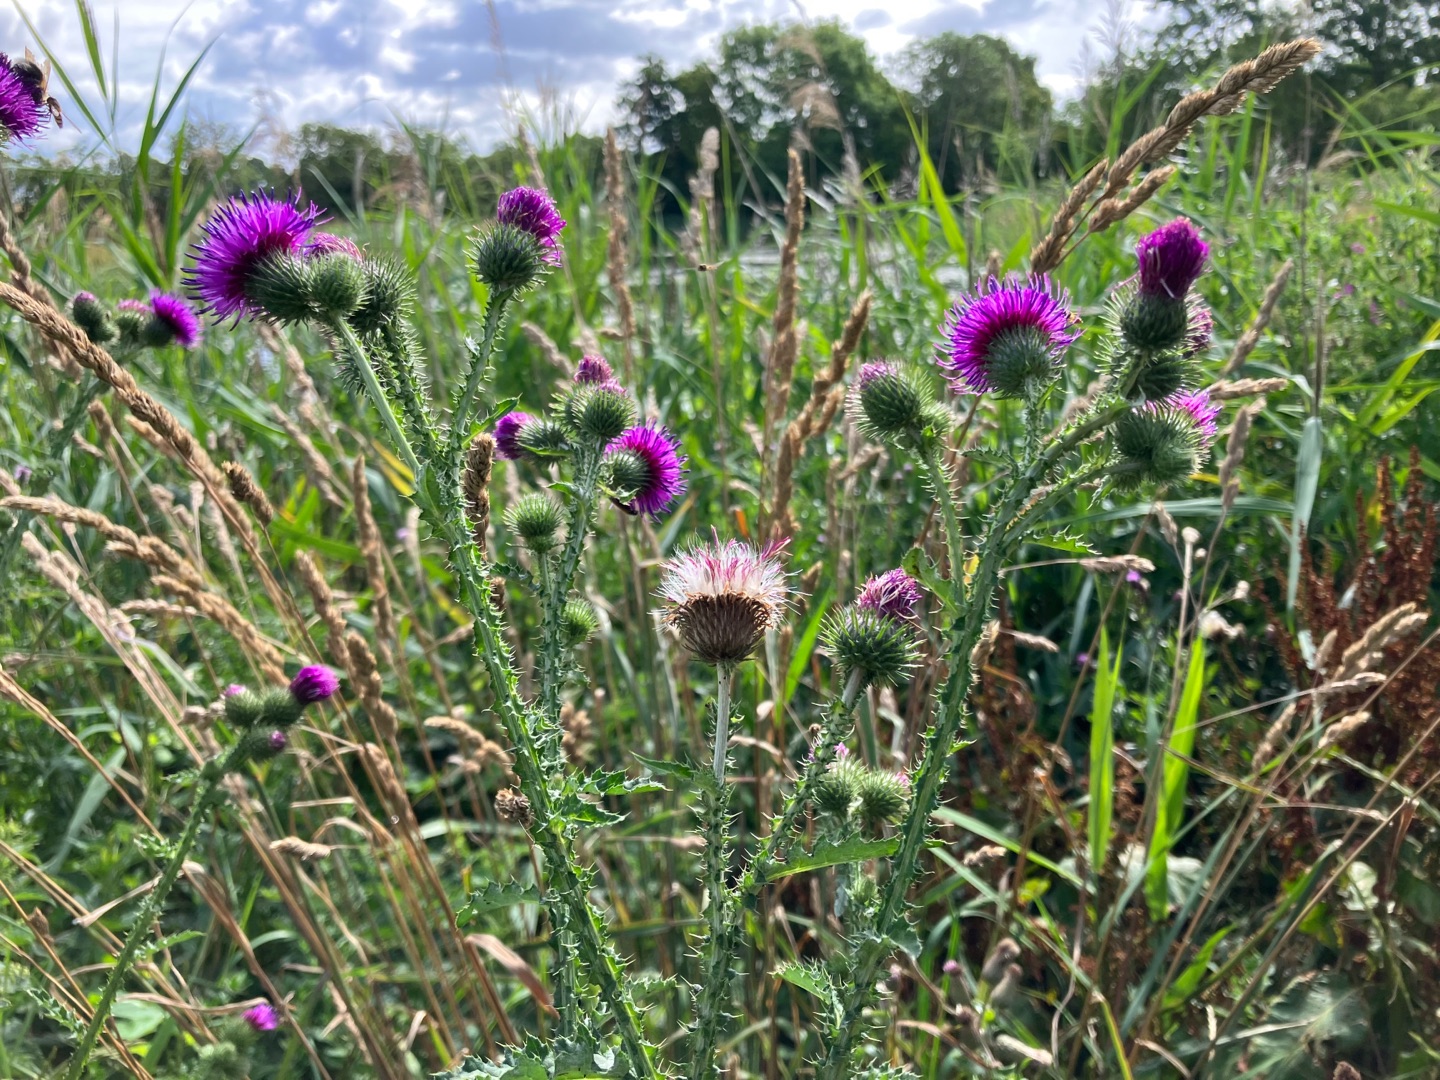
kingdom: Plantae
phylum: Tracheophyta
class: Magnoliopsida
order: Asterales
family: Asteraceae
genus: Carduus
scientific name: Carduus crispus
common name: Kruset tidsel
